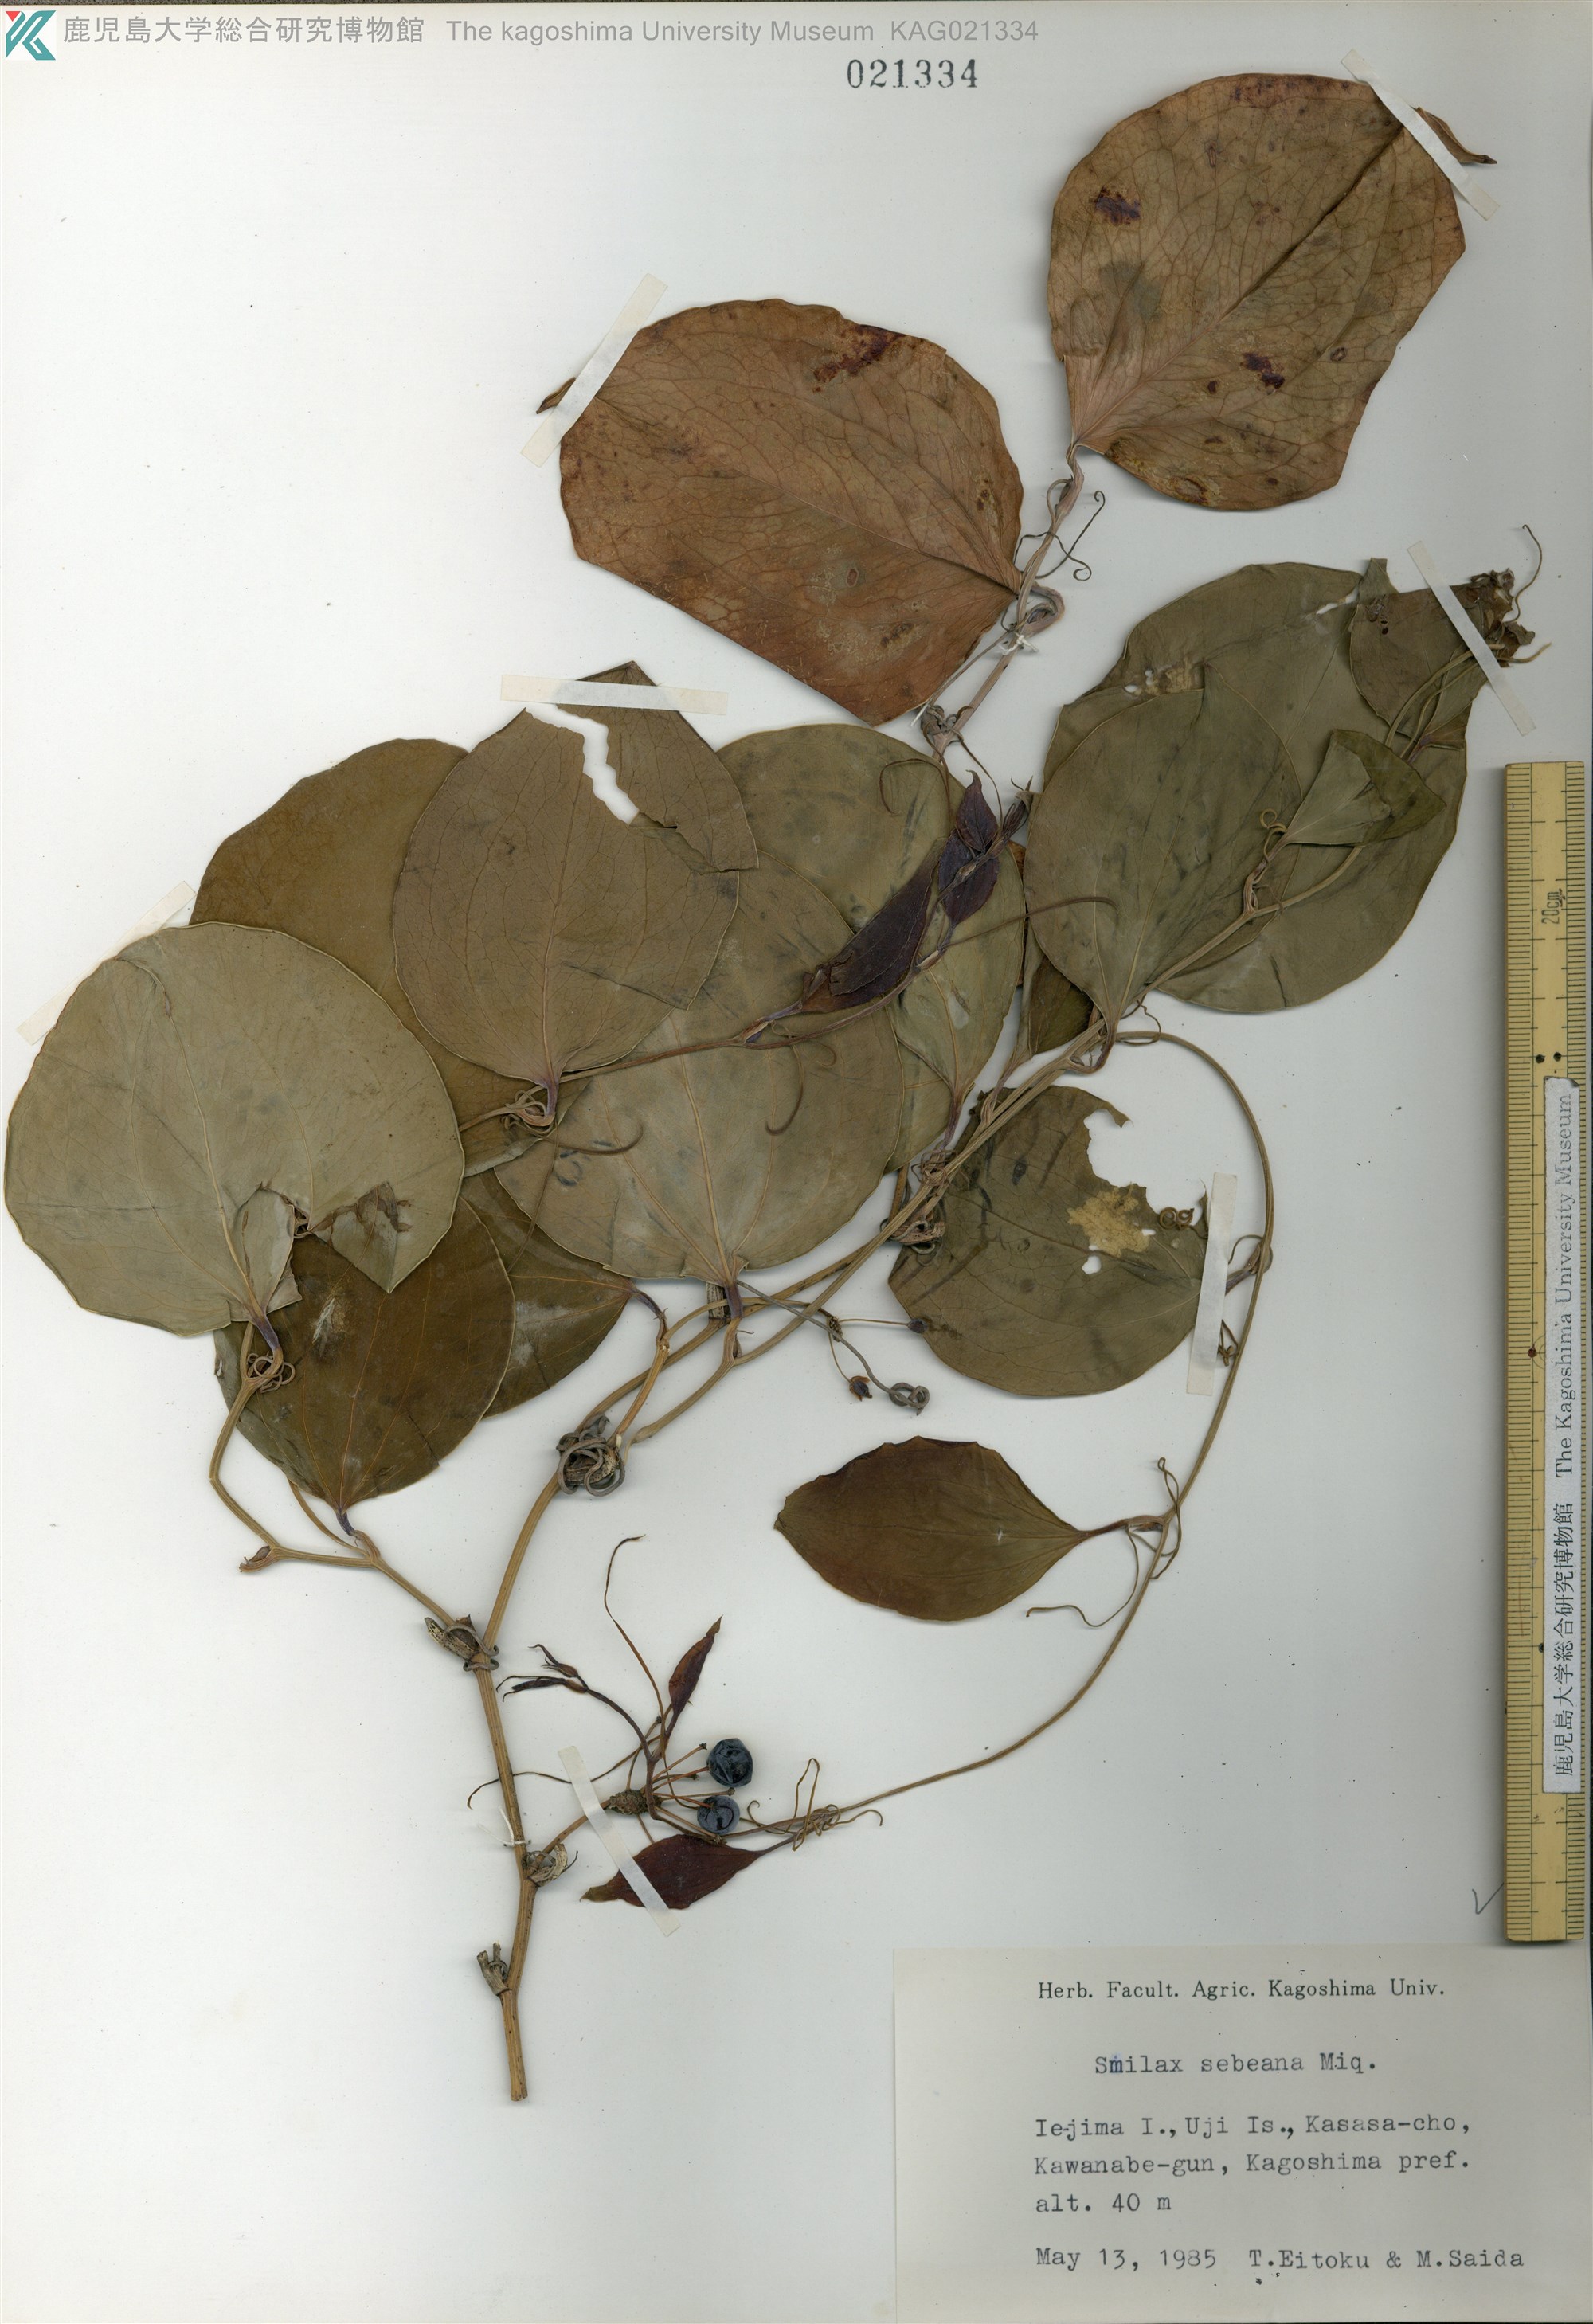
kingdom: Plantae
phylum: Tracheophyta
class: Liliopsida
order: Liliales
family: Smilacaceae
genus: Smilax
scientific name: Smilax sebeana
